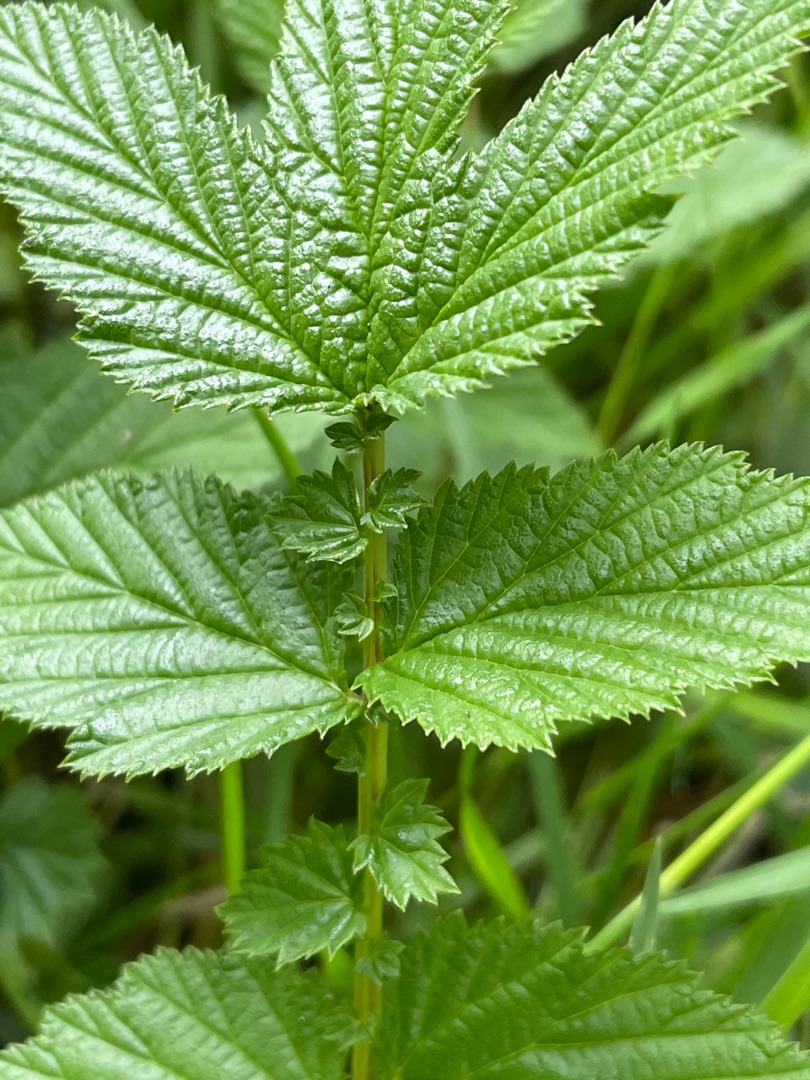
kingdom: Plantae
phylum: Tracheophyta
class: Magnoliopsida
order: Rosales
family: Rosaceae
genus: Filipendula
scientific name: Filipendula ulmaria
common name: Almindelig mjødurt
